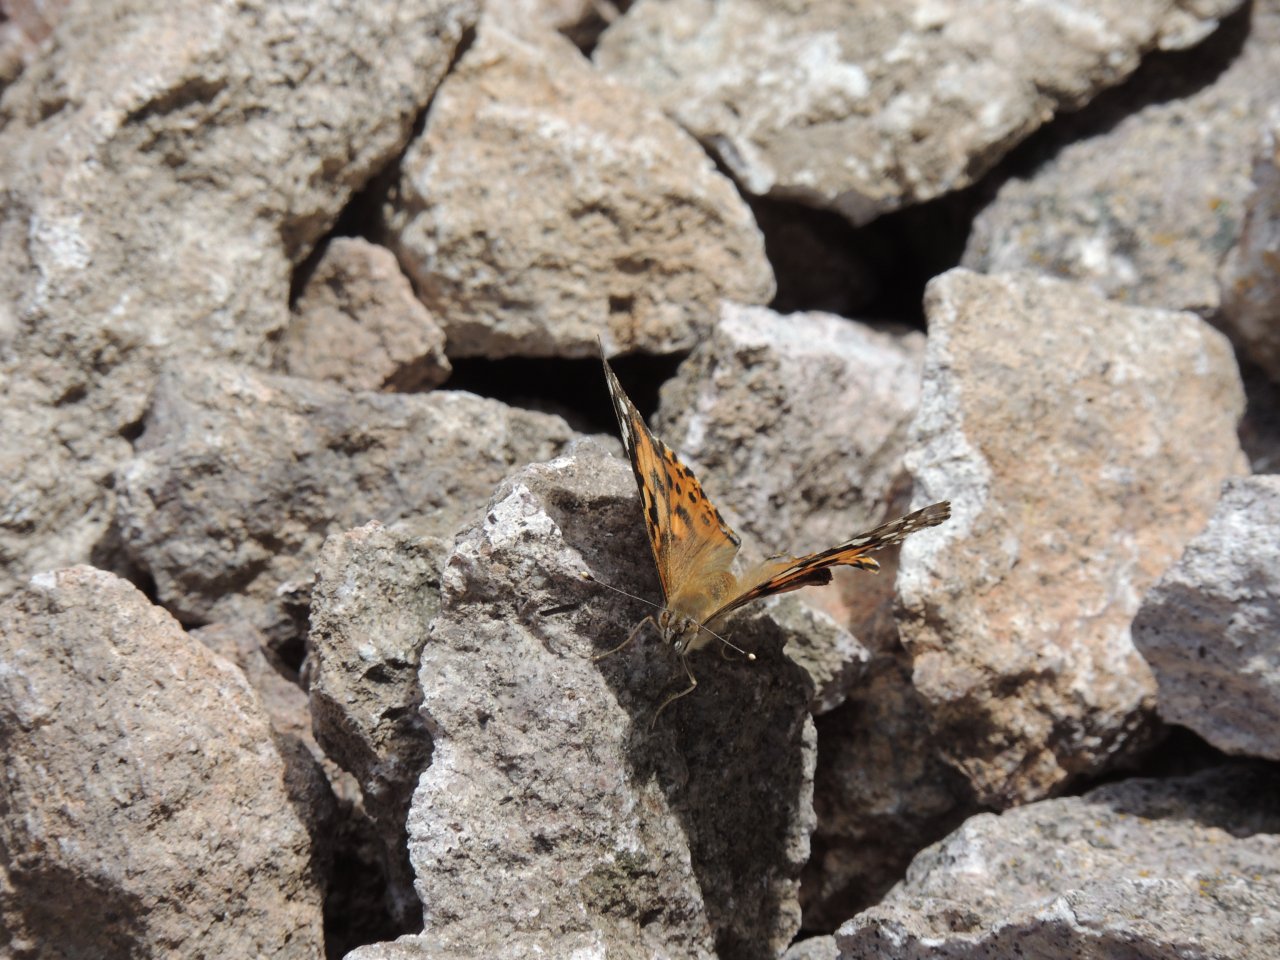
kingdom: Animalia
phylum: Arthropoda
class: Insecta
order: Lepidoptera
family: Nymphalidae
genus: Vanessa
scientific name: Vanessa cardui
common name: Painted Lady
